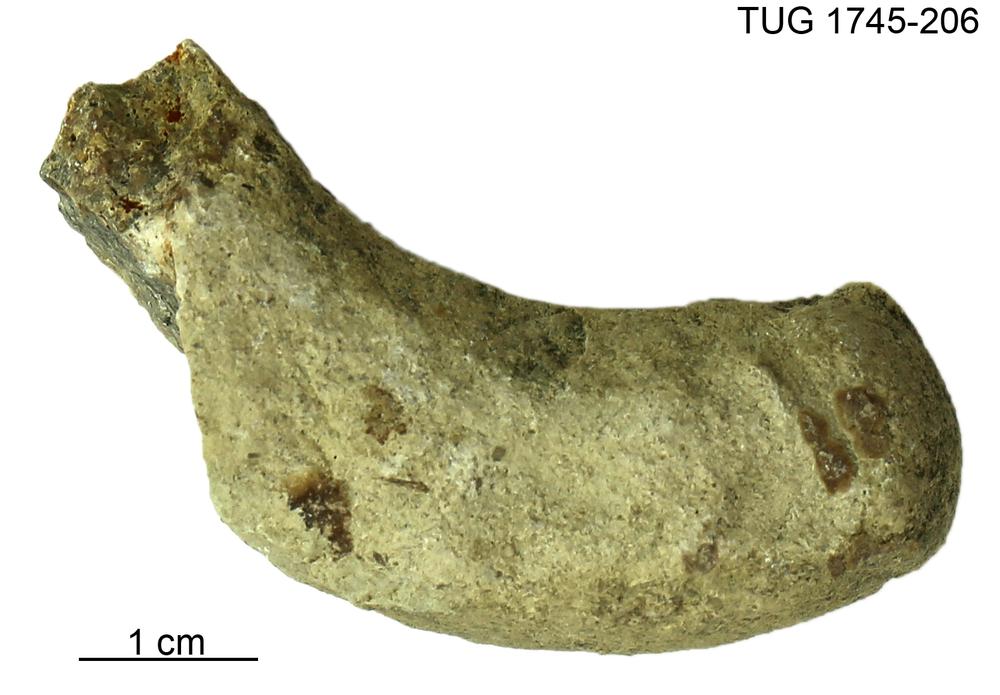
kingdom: Animalia
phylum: Mollusca
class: Cephalopoda
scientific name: Cephalopoda
